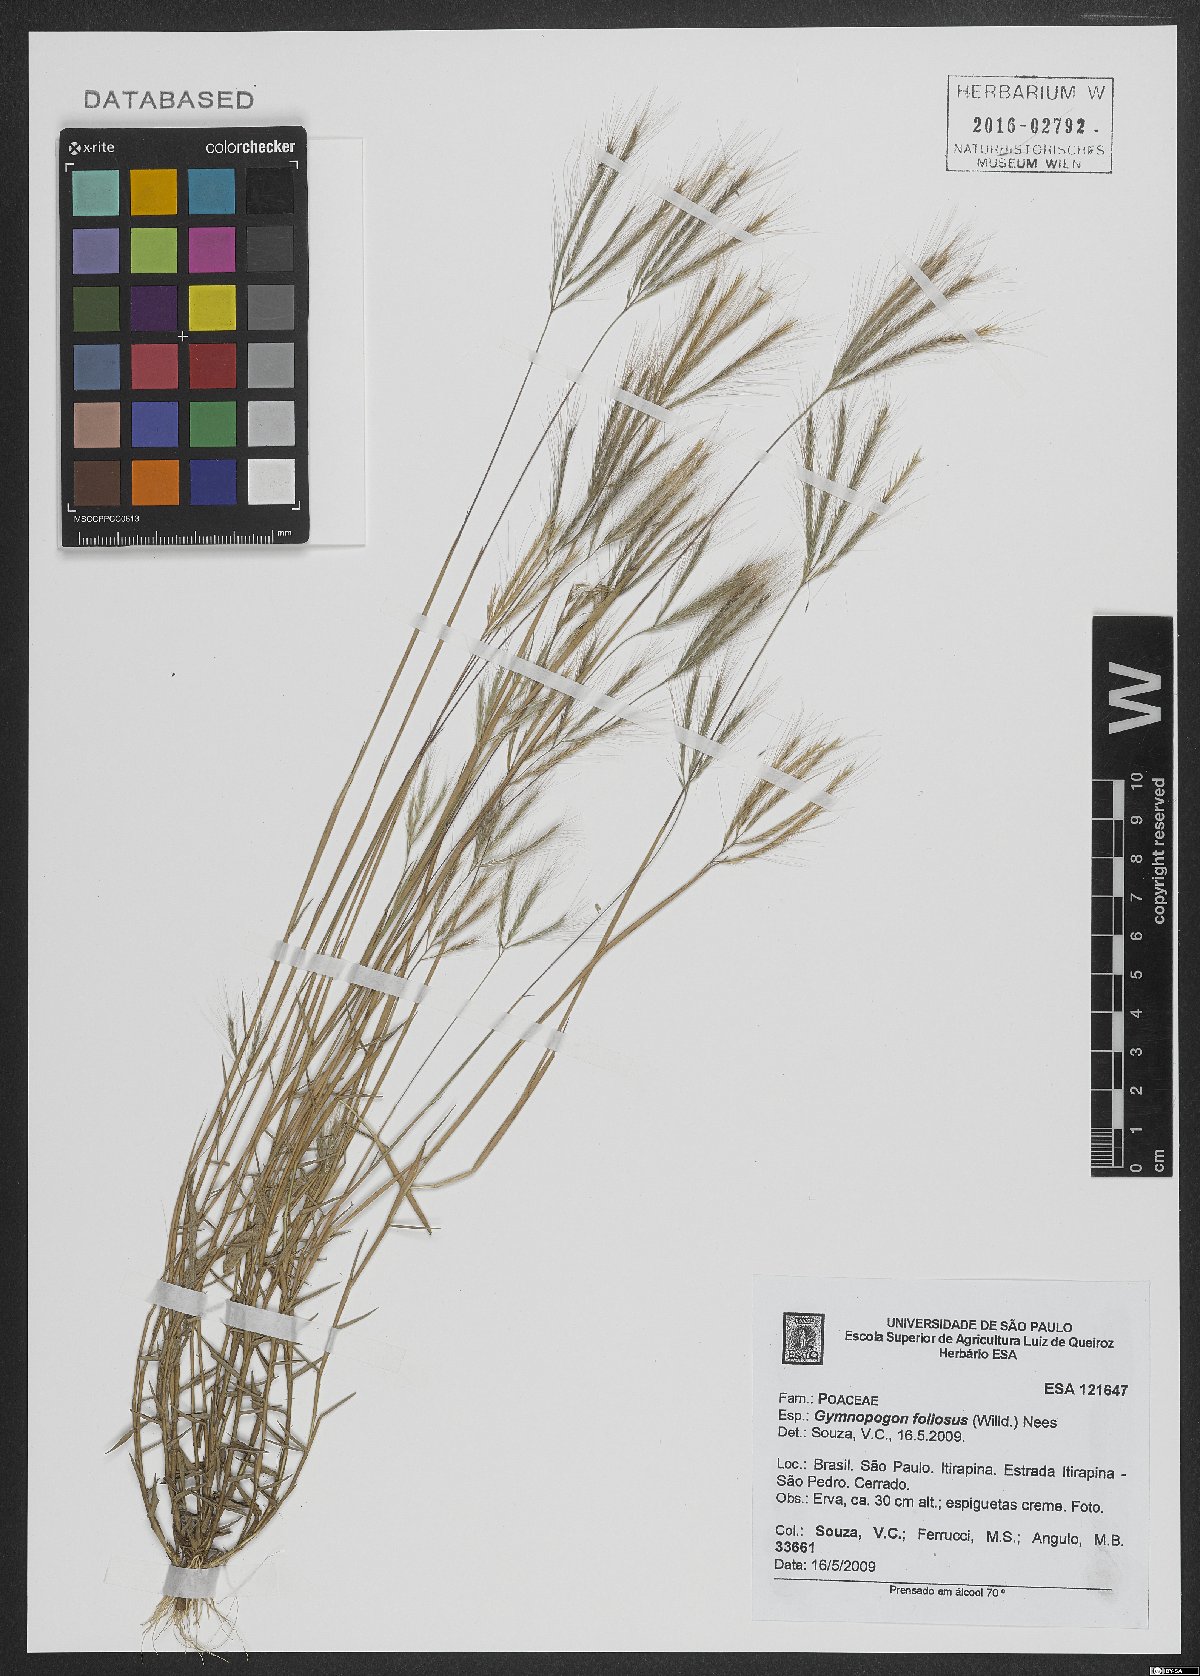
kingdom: Plantae
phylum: Tracheophyta
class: Liliopsida
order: Poales
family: Poaceae
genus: Gymnopogon
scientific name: Gymnopogon foliosus
